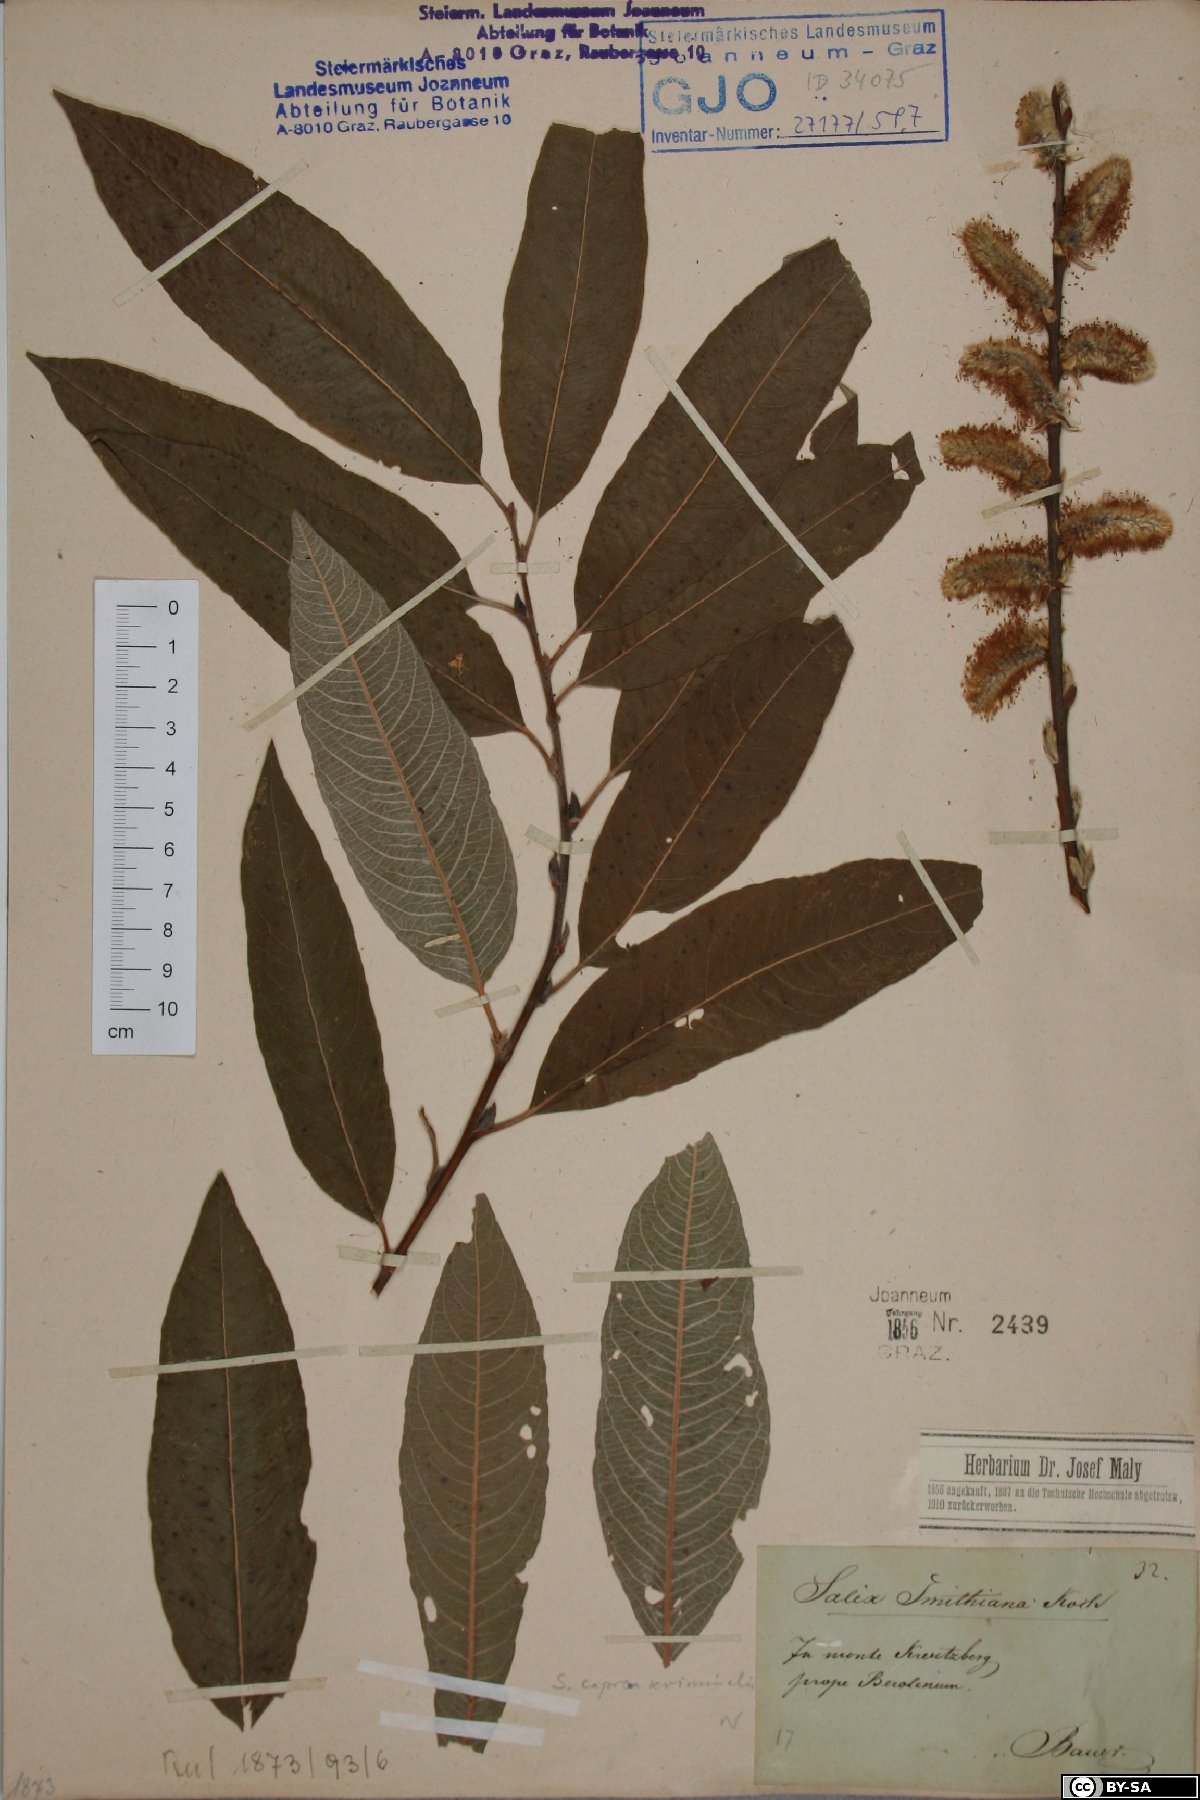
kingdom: Plantae
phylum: Tracheophyta
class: Magnoliopsida
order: Malpighiales
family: Salicaceae
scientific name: Salicaceae
